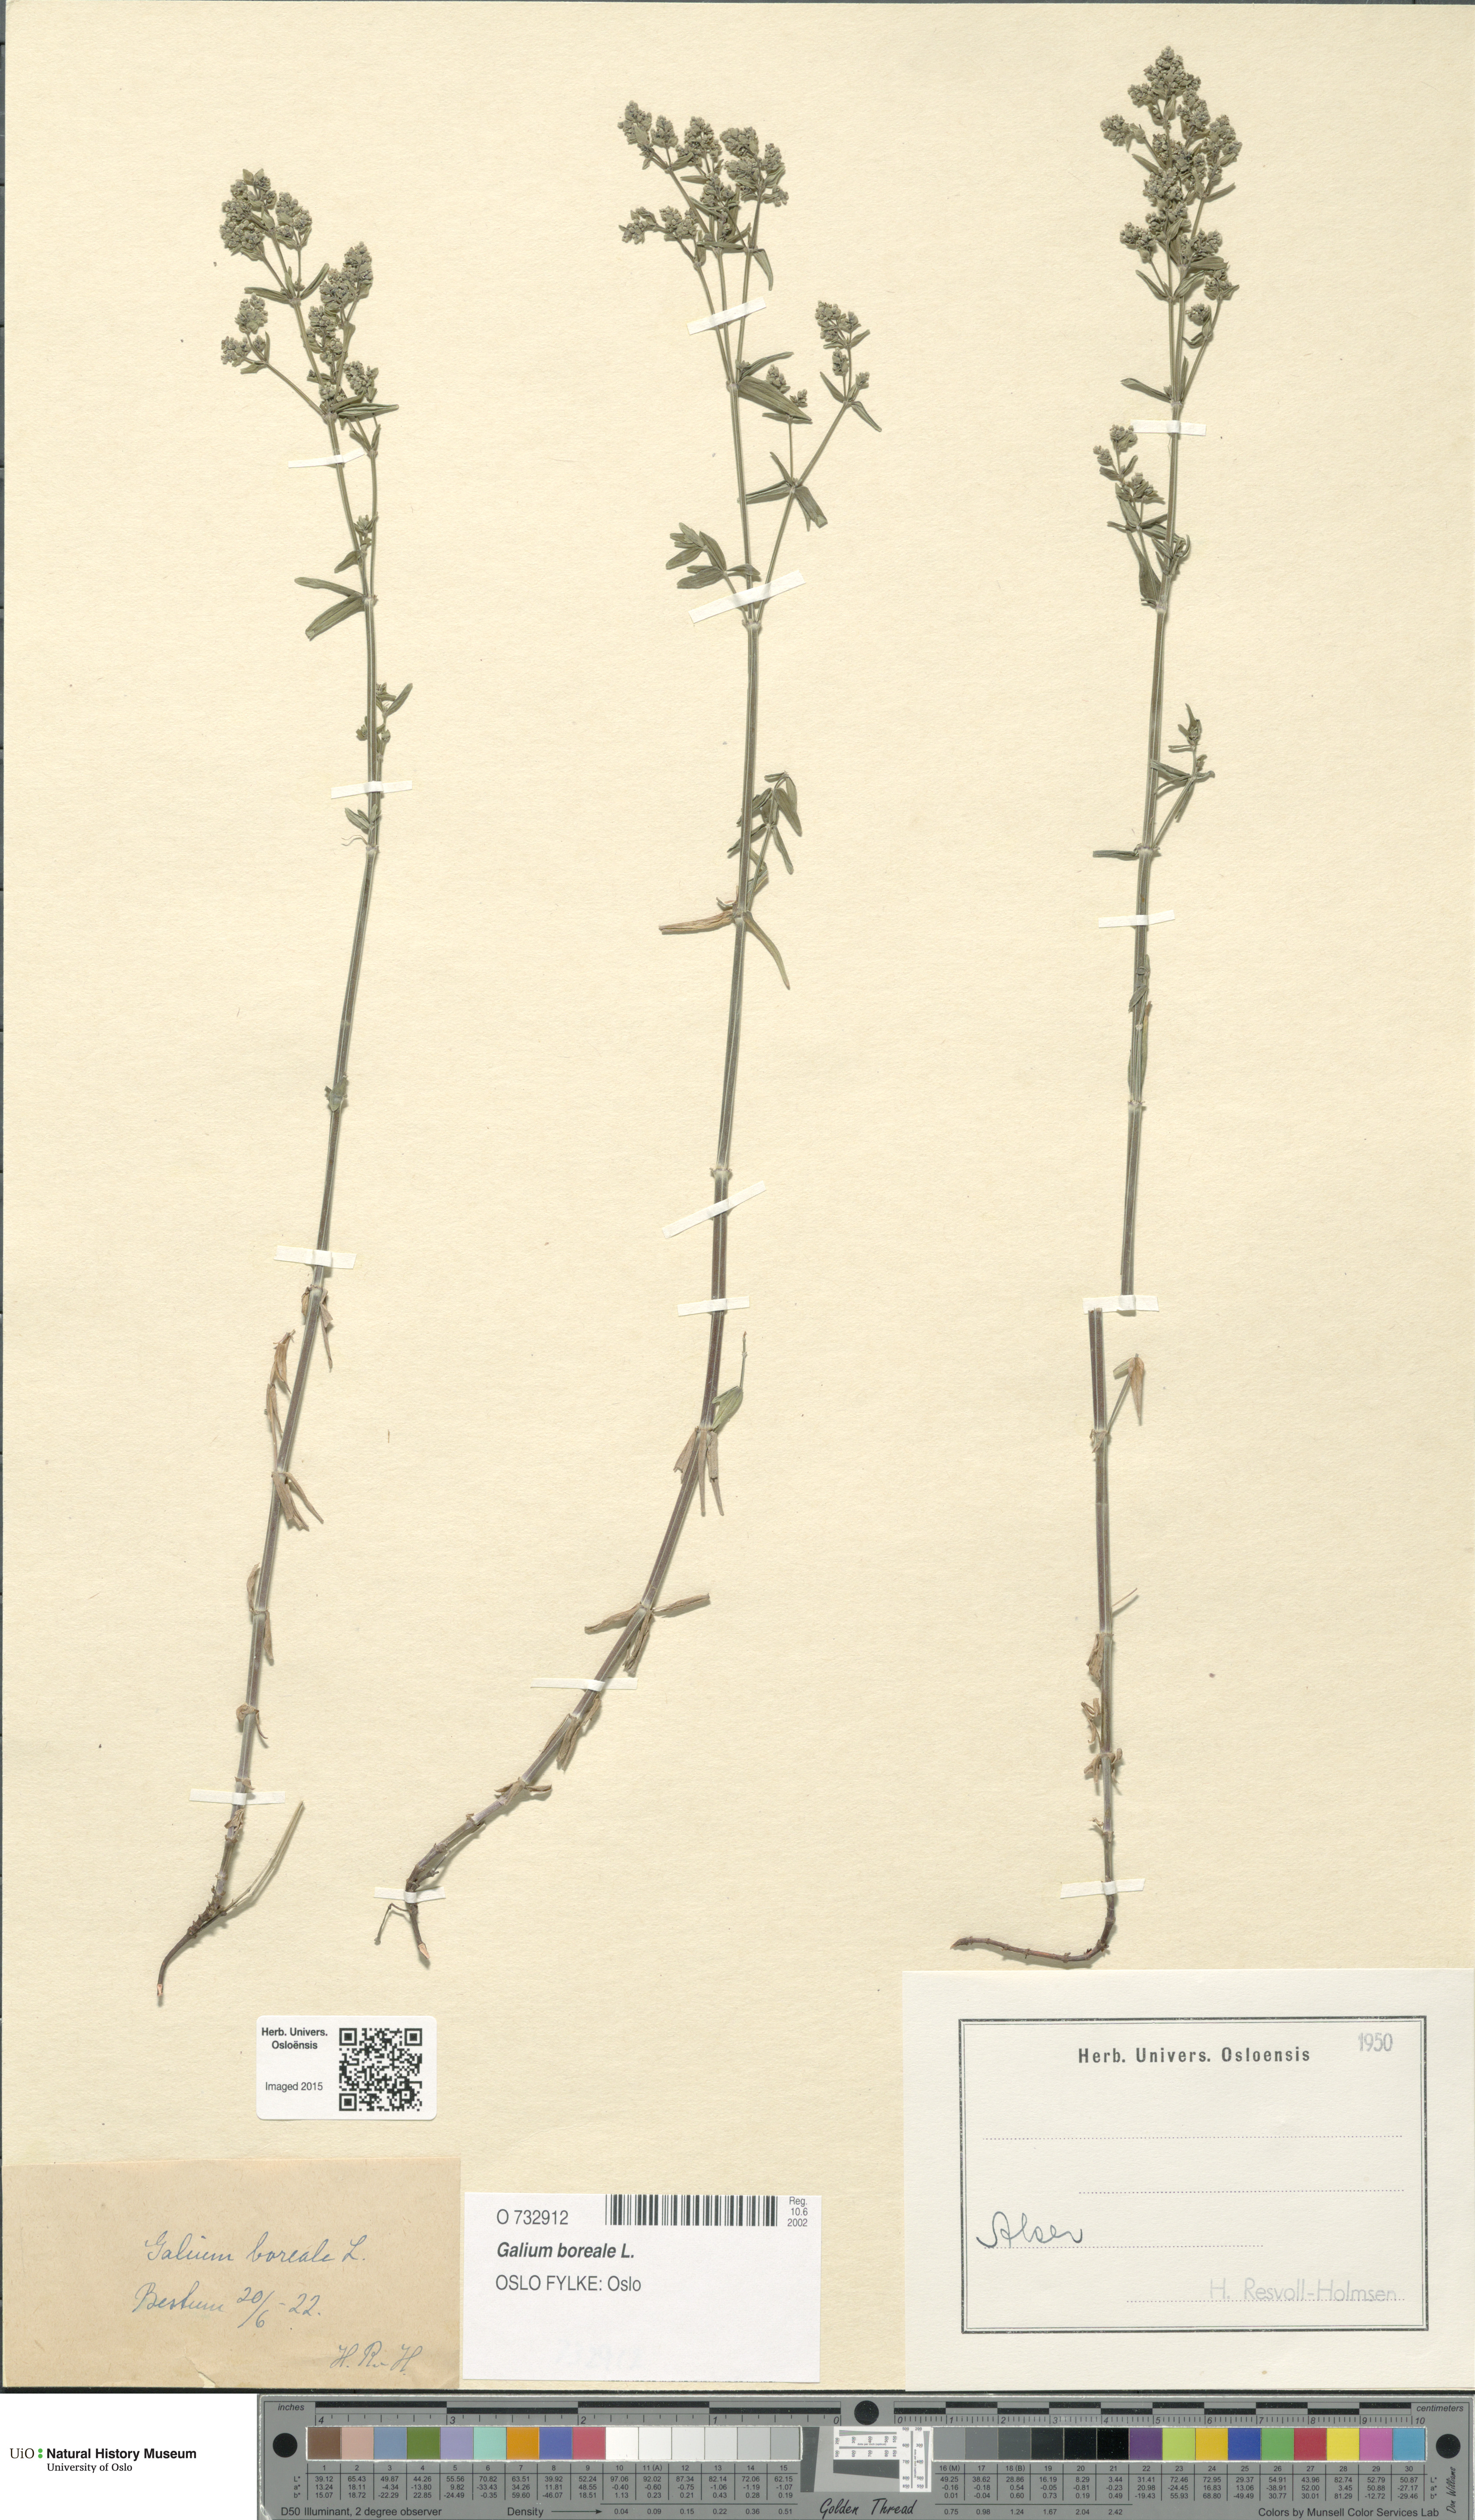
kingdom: Plantae
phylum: Tracheophyta
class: Magnoliopsida
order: Gentianales
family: Rubiaceae
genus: Galium
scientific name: Galium boreale
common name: Northern bedstraw
